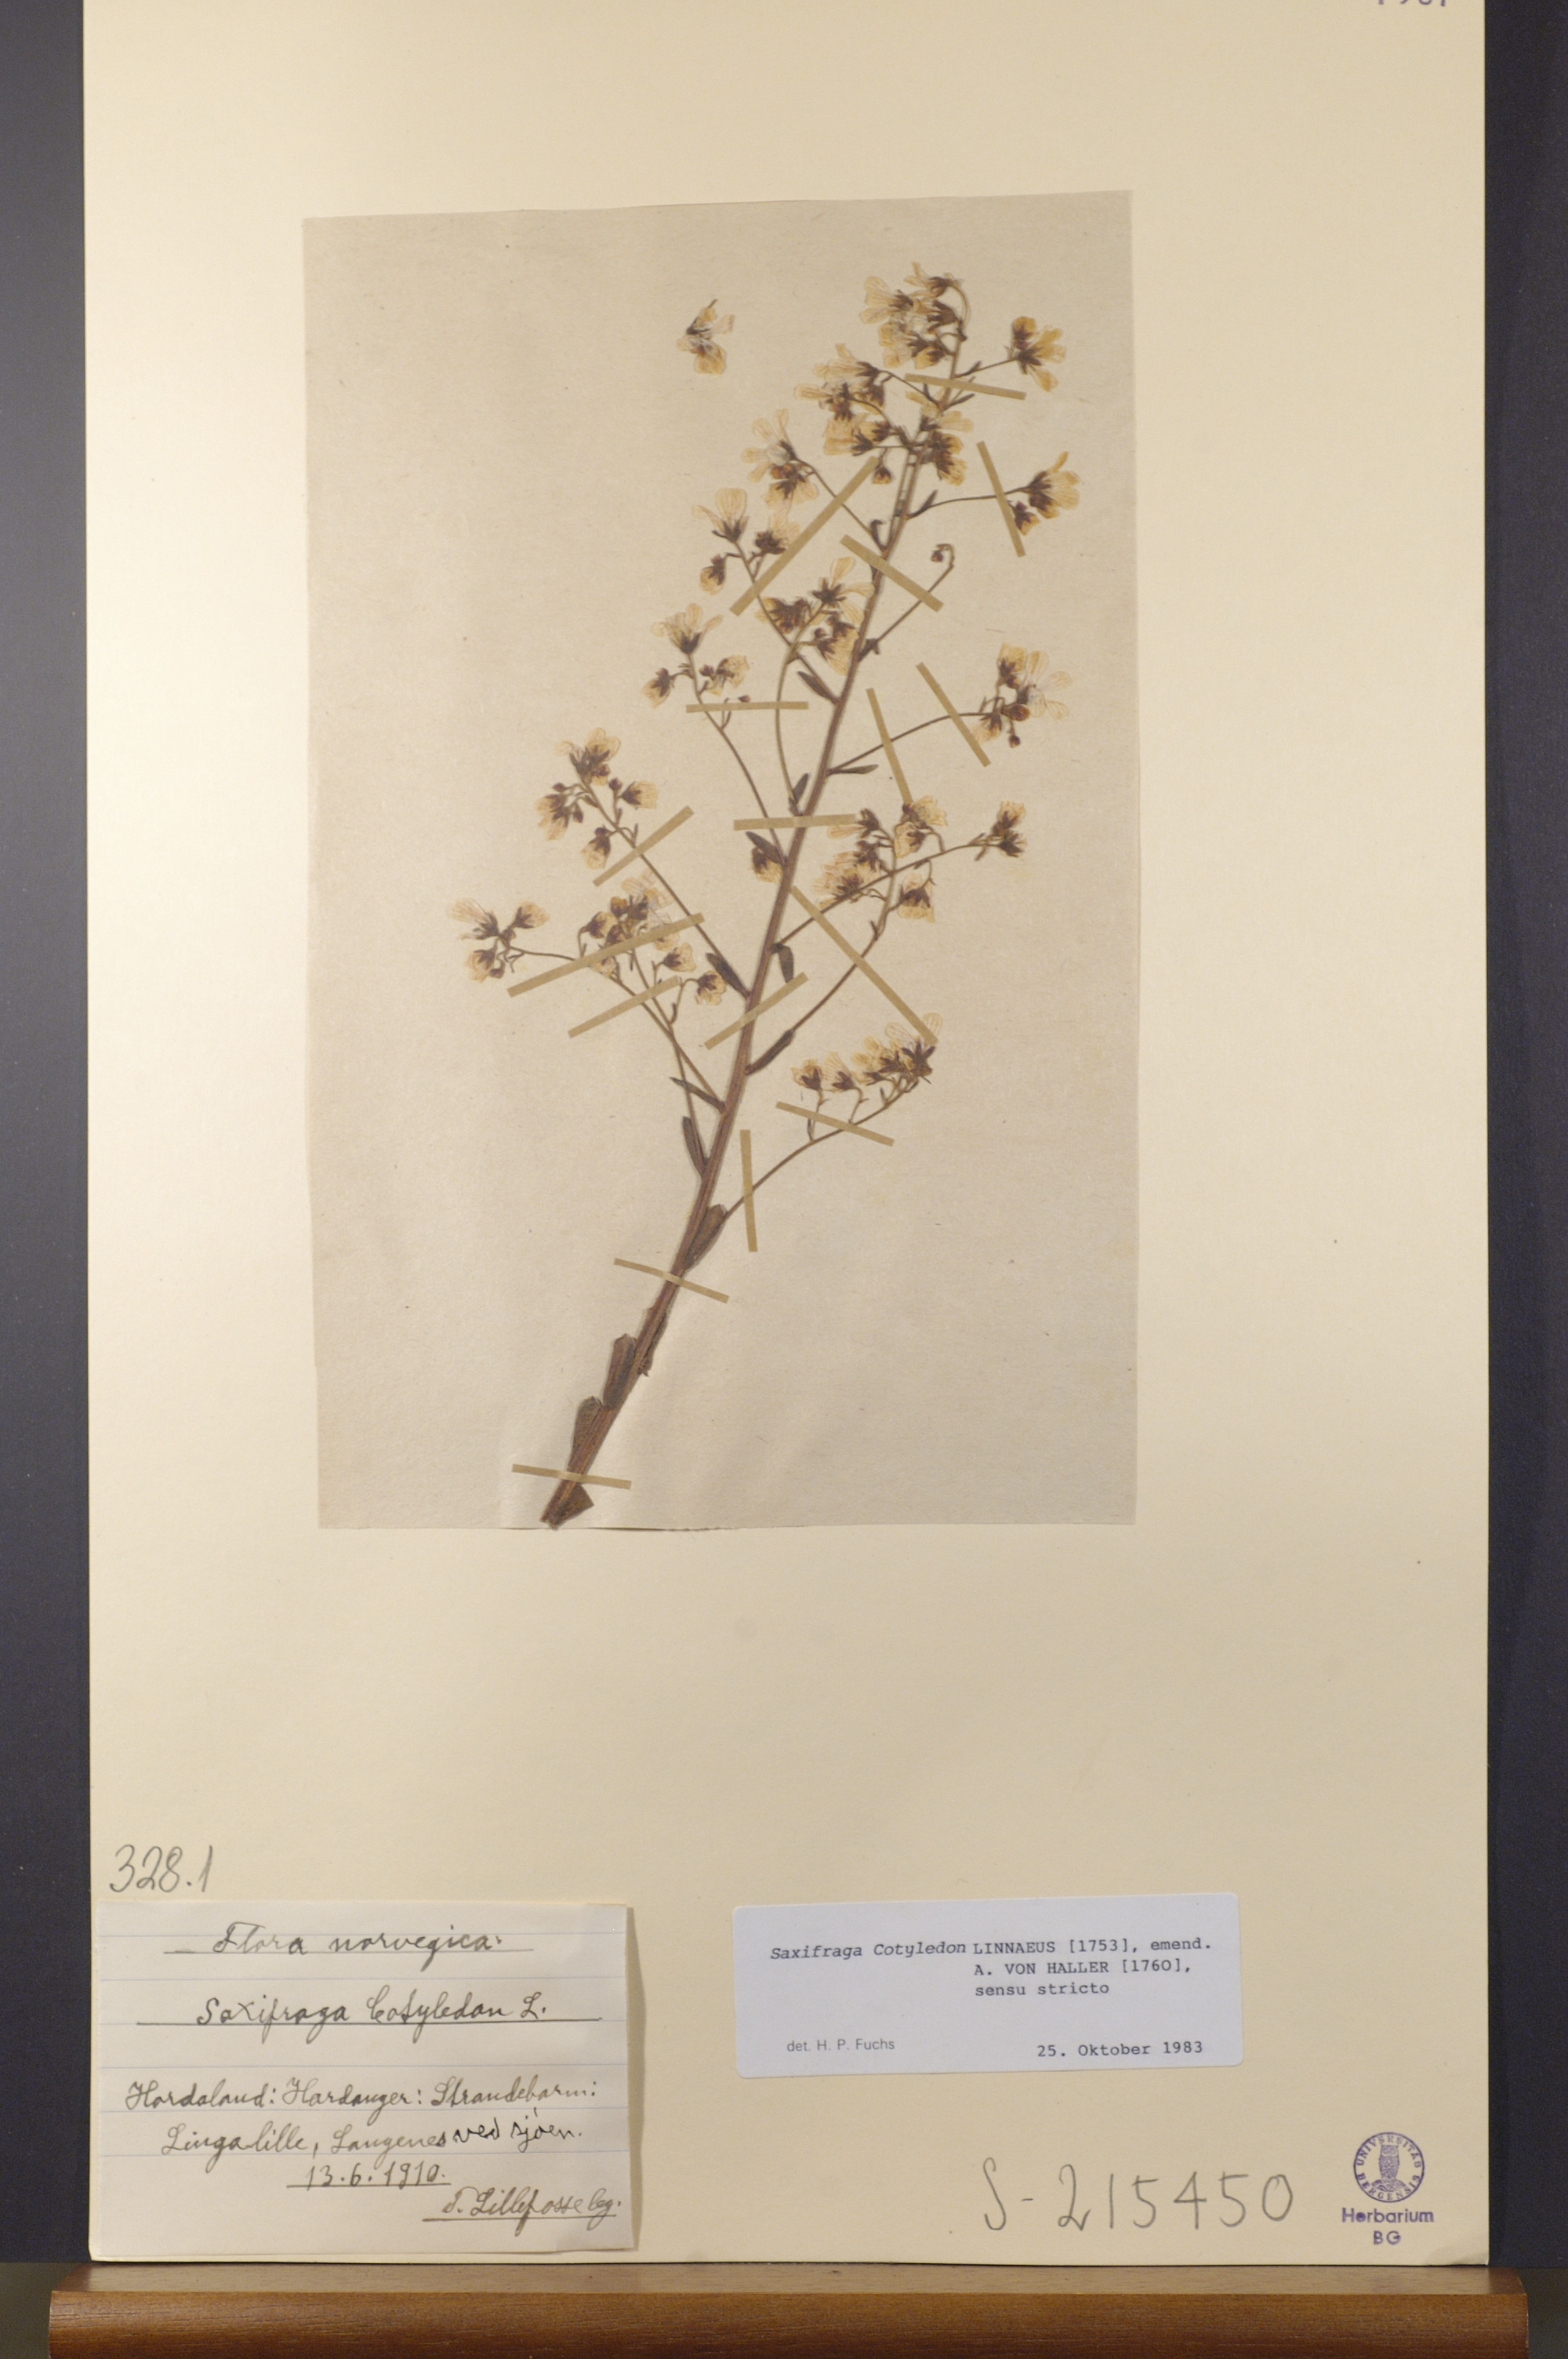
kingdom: Plantae
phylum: Tracheophyta
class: Magnoliopsida
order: Saxifragales
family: Saxifragaceae
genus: Saxifraga
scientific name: Saxifraga cotyledon
